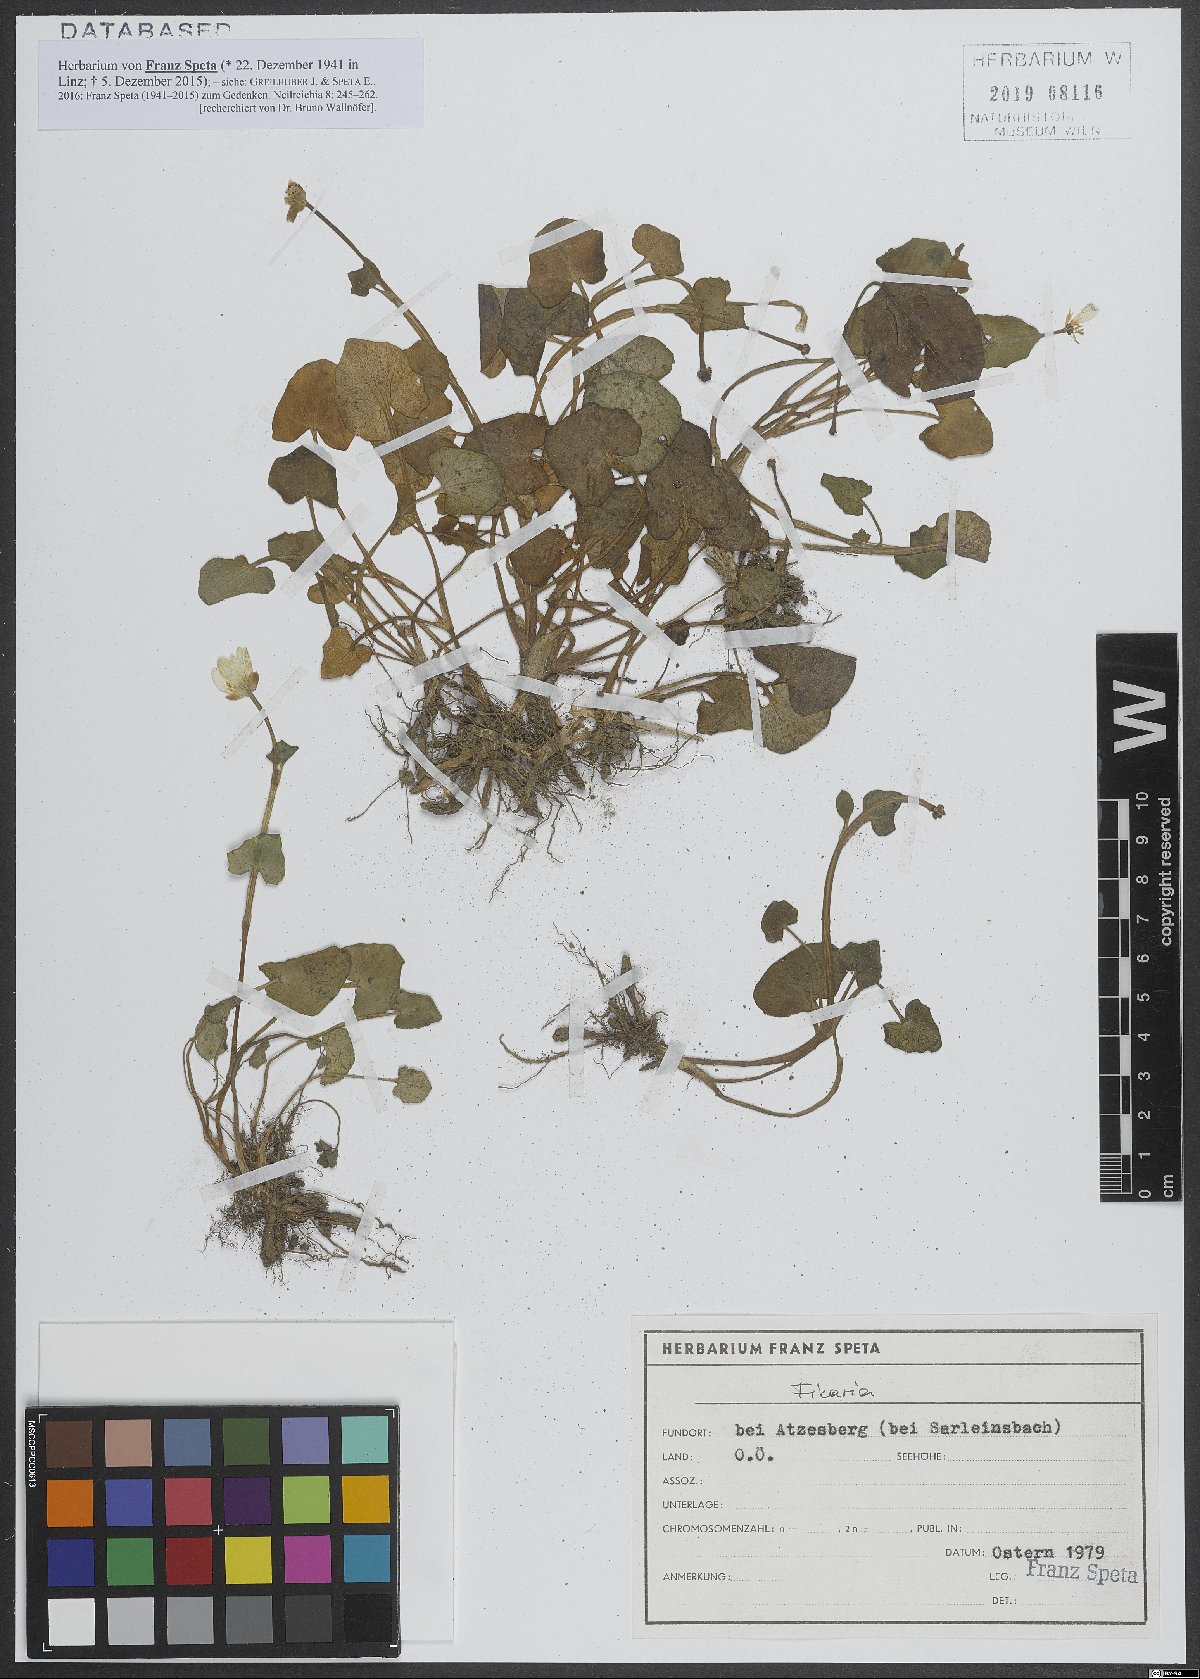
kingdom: Plantae
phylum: Tracheophyta
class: Magnoliopsida
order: Ranunculales
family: Ranunculaceae
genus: Ficaria
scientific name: Ficaria
